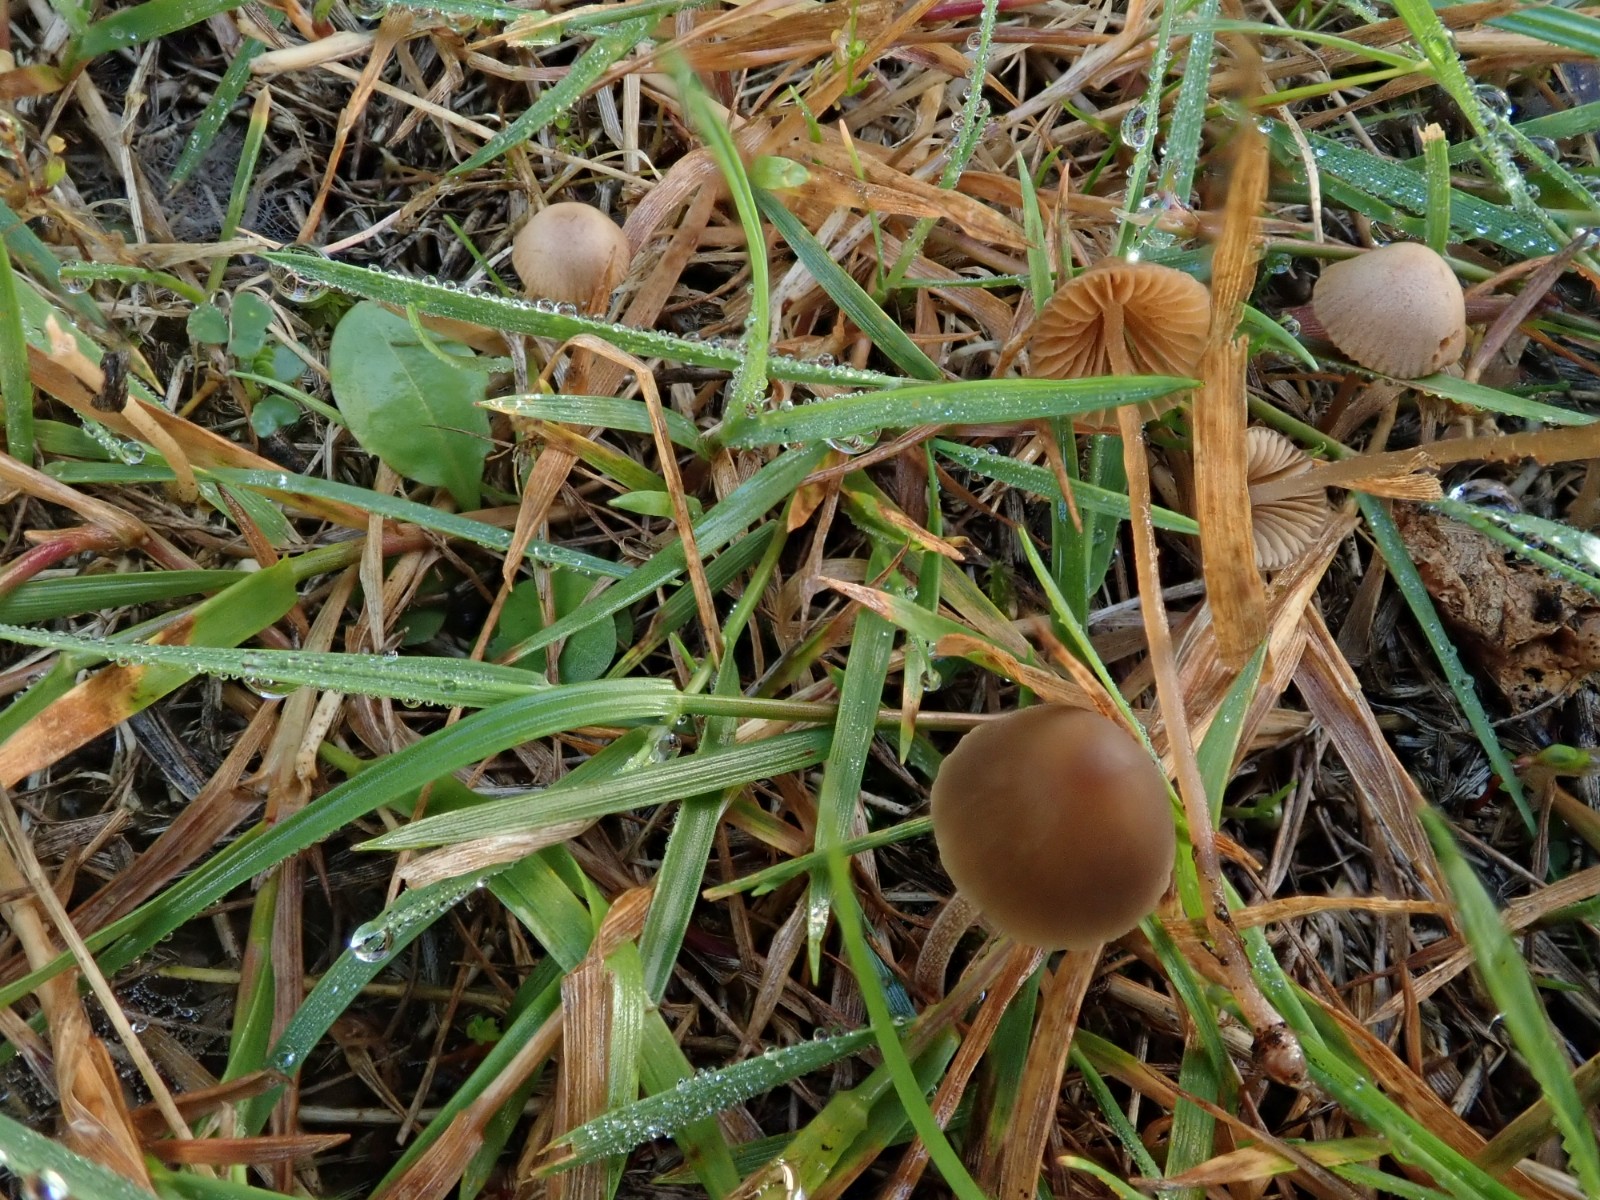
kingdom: Fungi
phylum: Basidiomycota
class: Agaricomycetes
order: Agaricales
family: Bolbitiaceae
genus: Conocybe
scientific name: Conocybe
